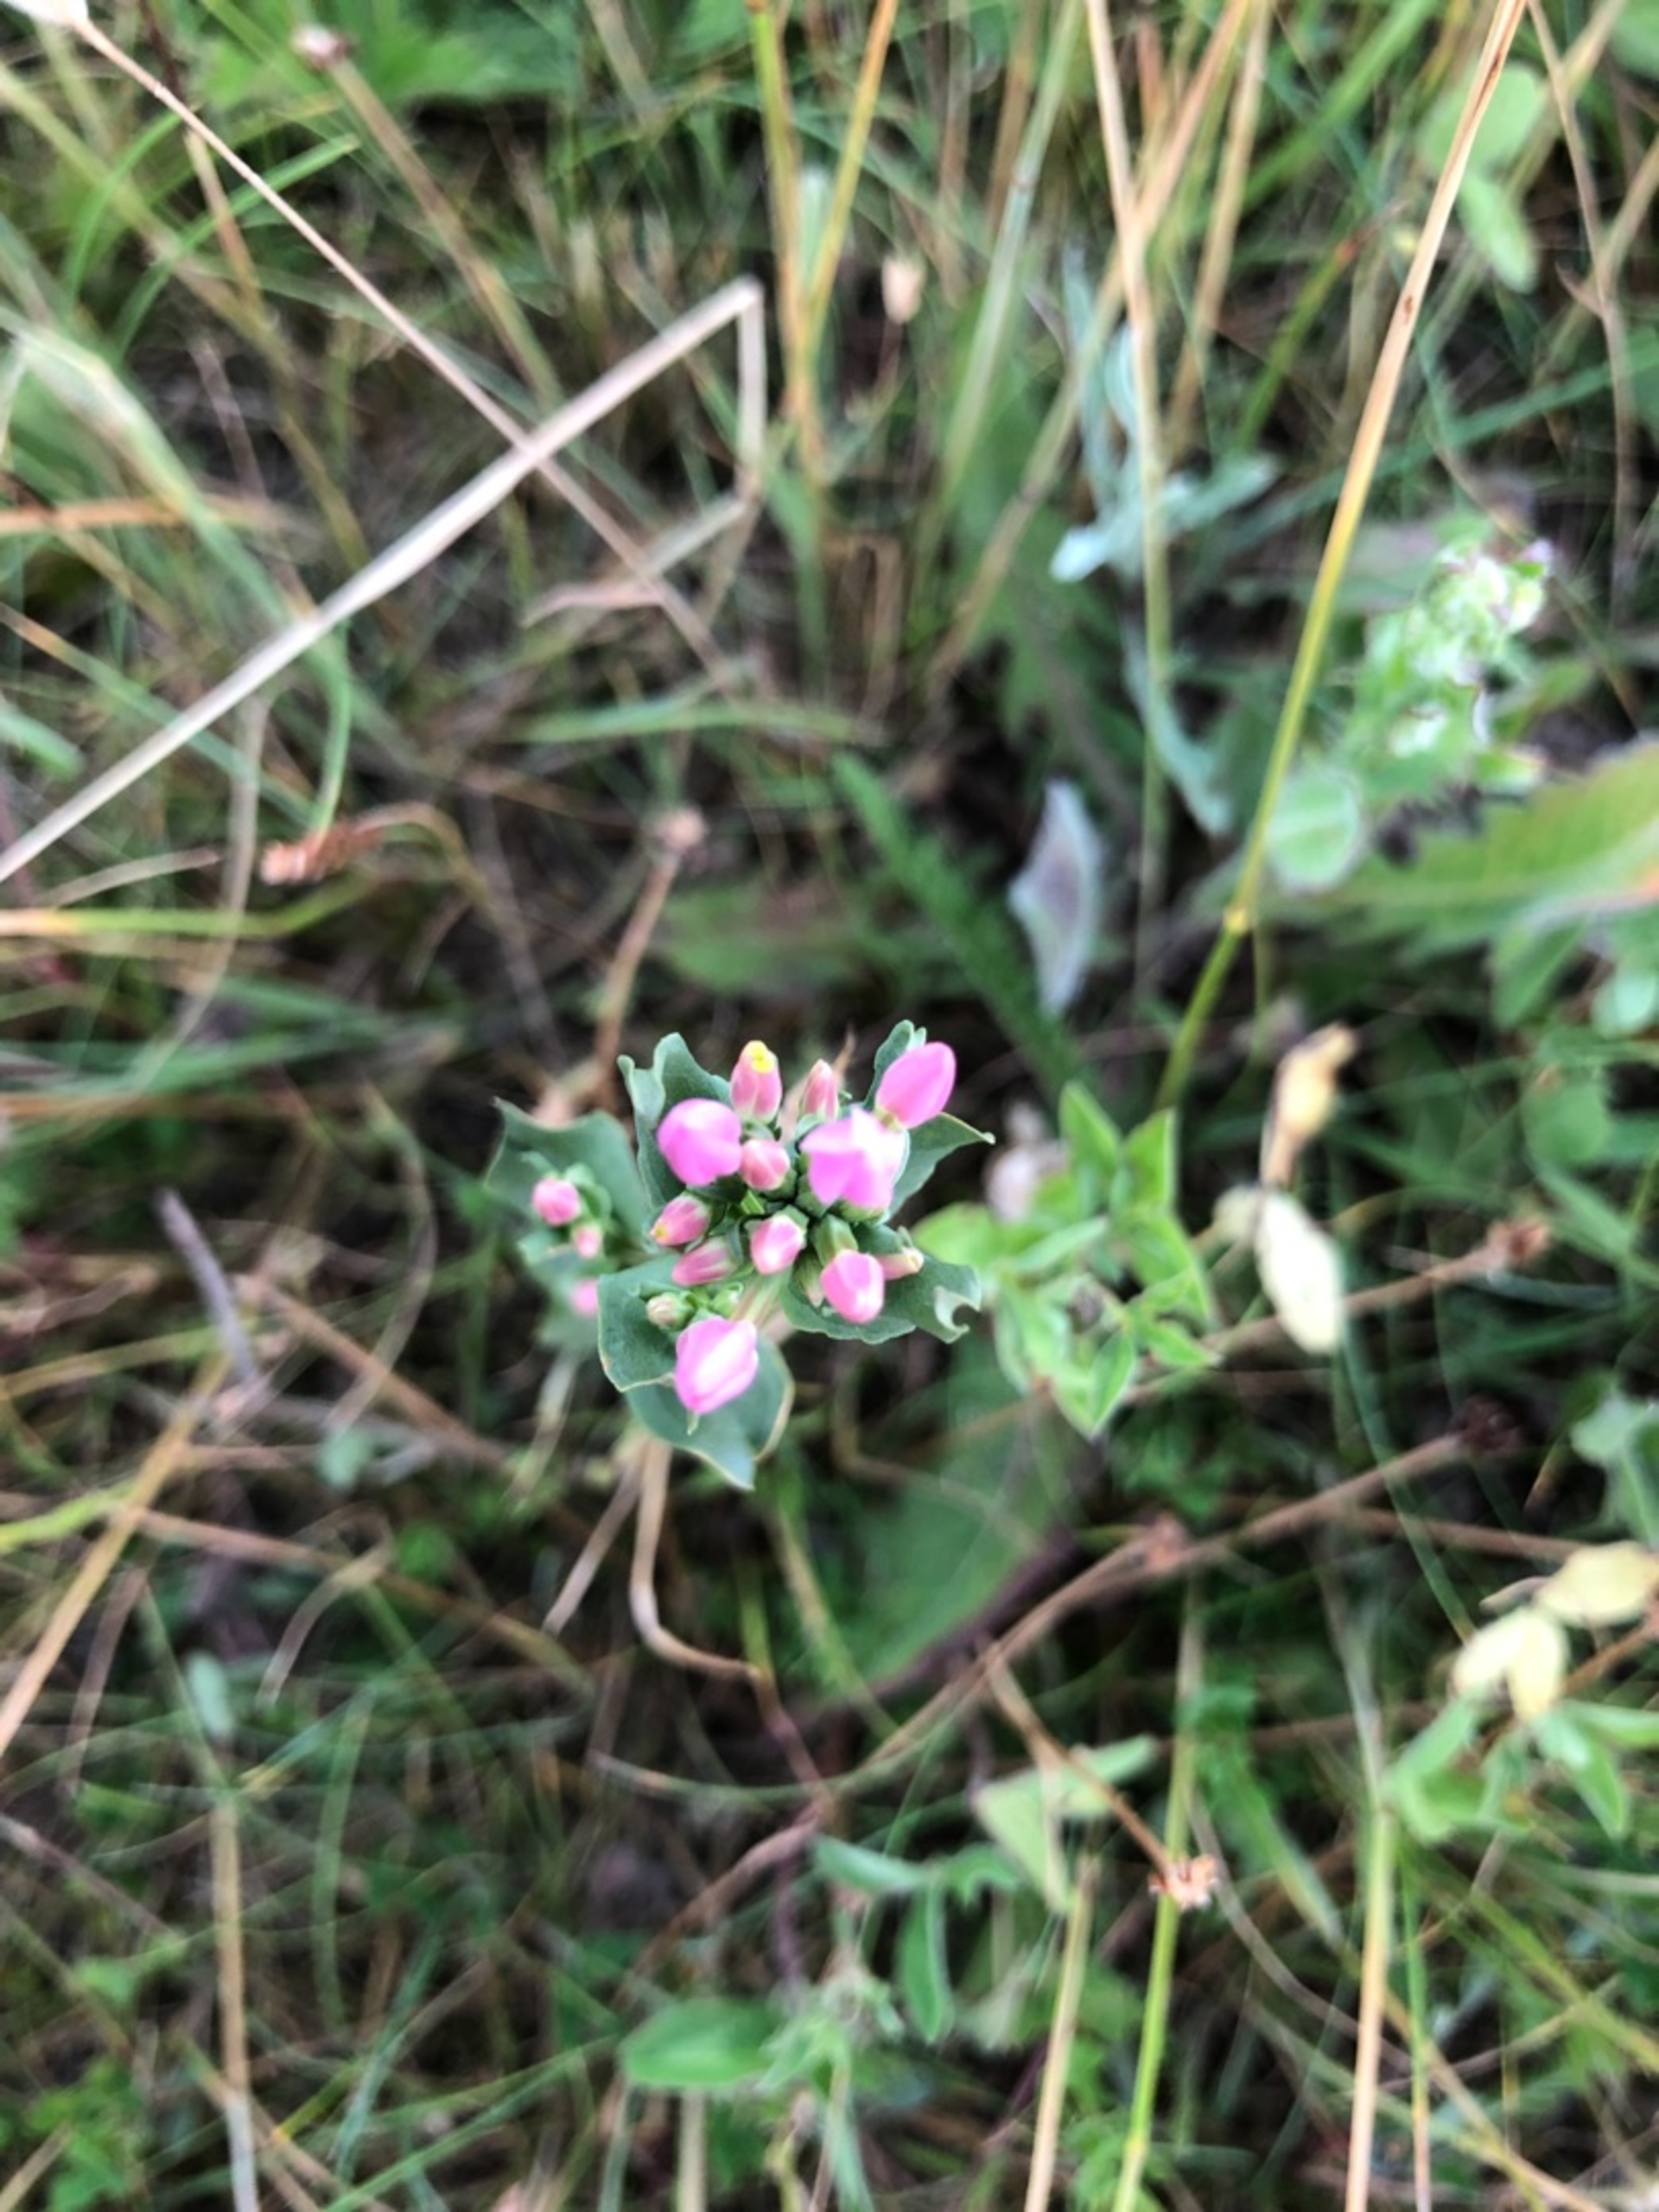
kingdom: Plantae
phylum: Tracheophyta
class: Magnoliopsida
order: Gentianales
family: Gentianaceae
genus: Centaurium
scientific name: Centaurium erythraea
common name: Mark-tusindgylden
